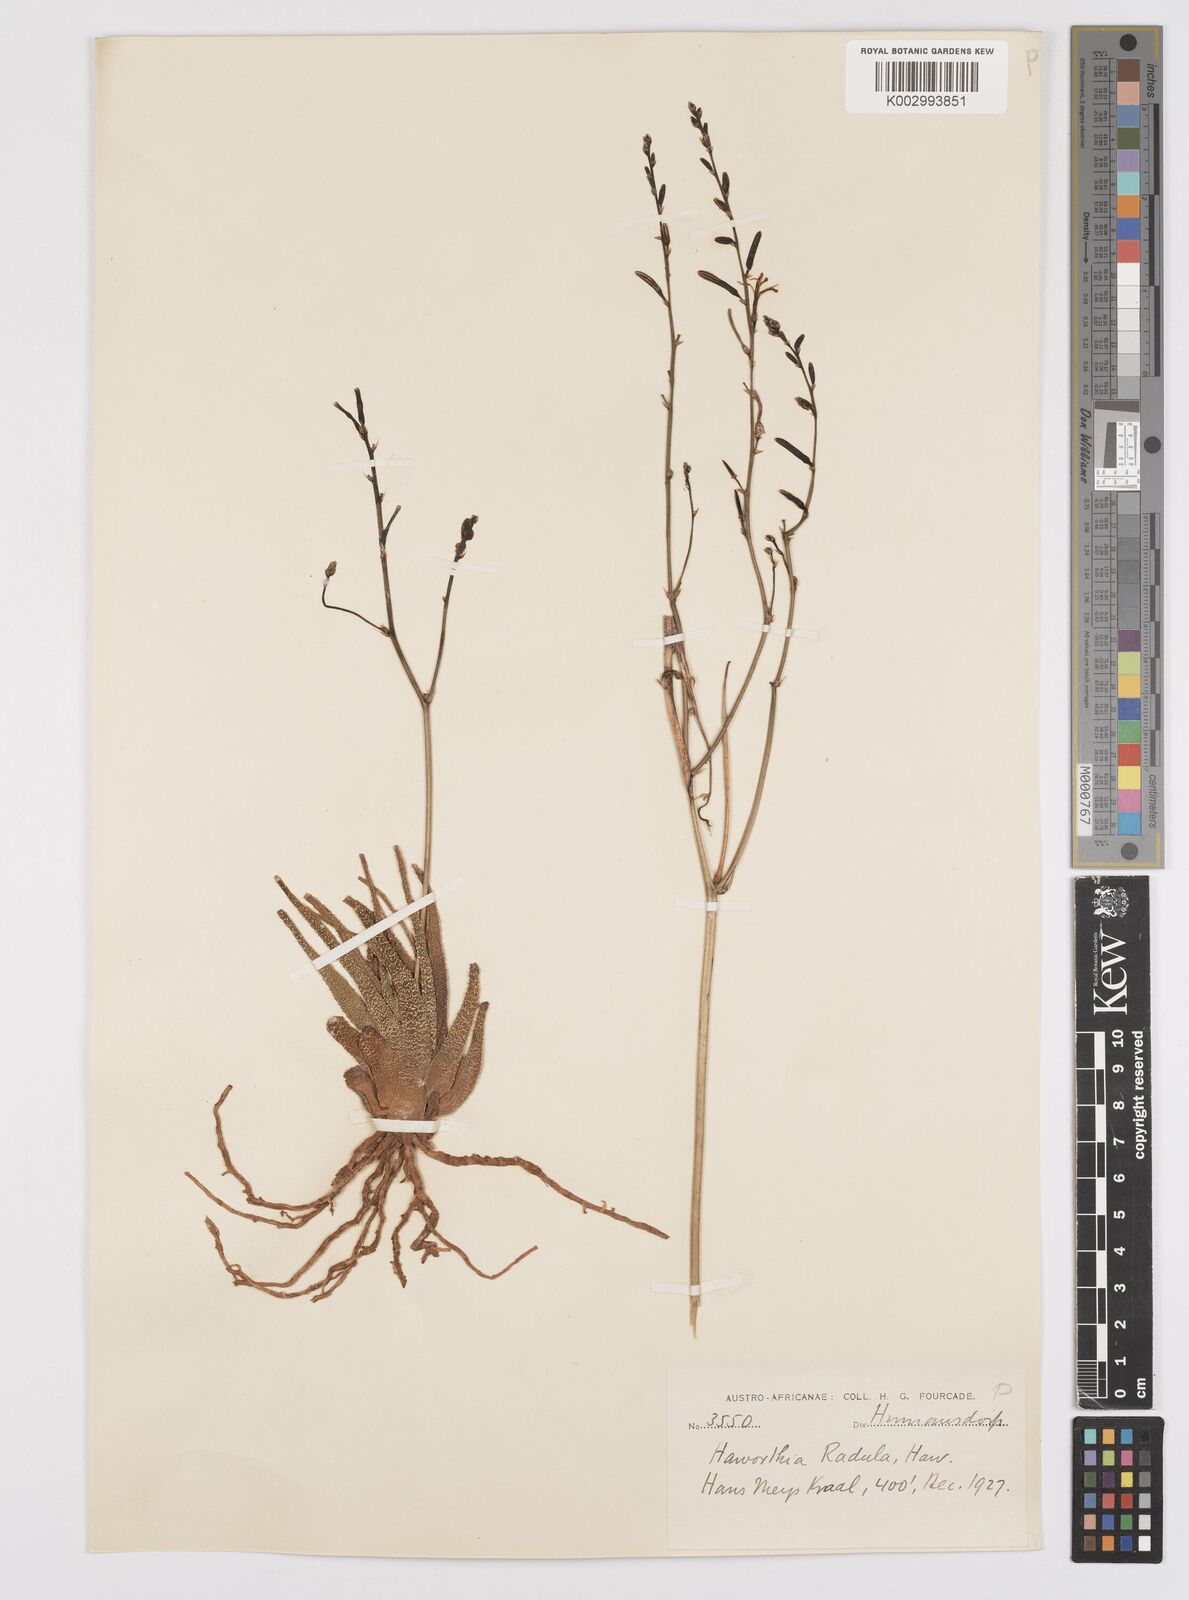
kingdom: Plantae
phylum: Tracheophyta
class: Liliopsida
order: Asparagales
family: Asphodelaceae
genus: Haworthiopsis
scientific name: Haworthiopsis attenuata
